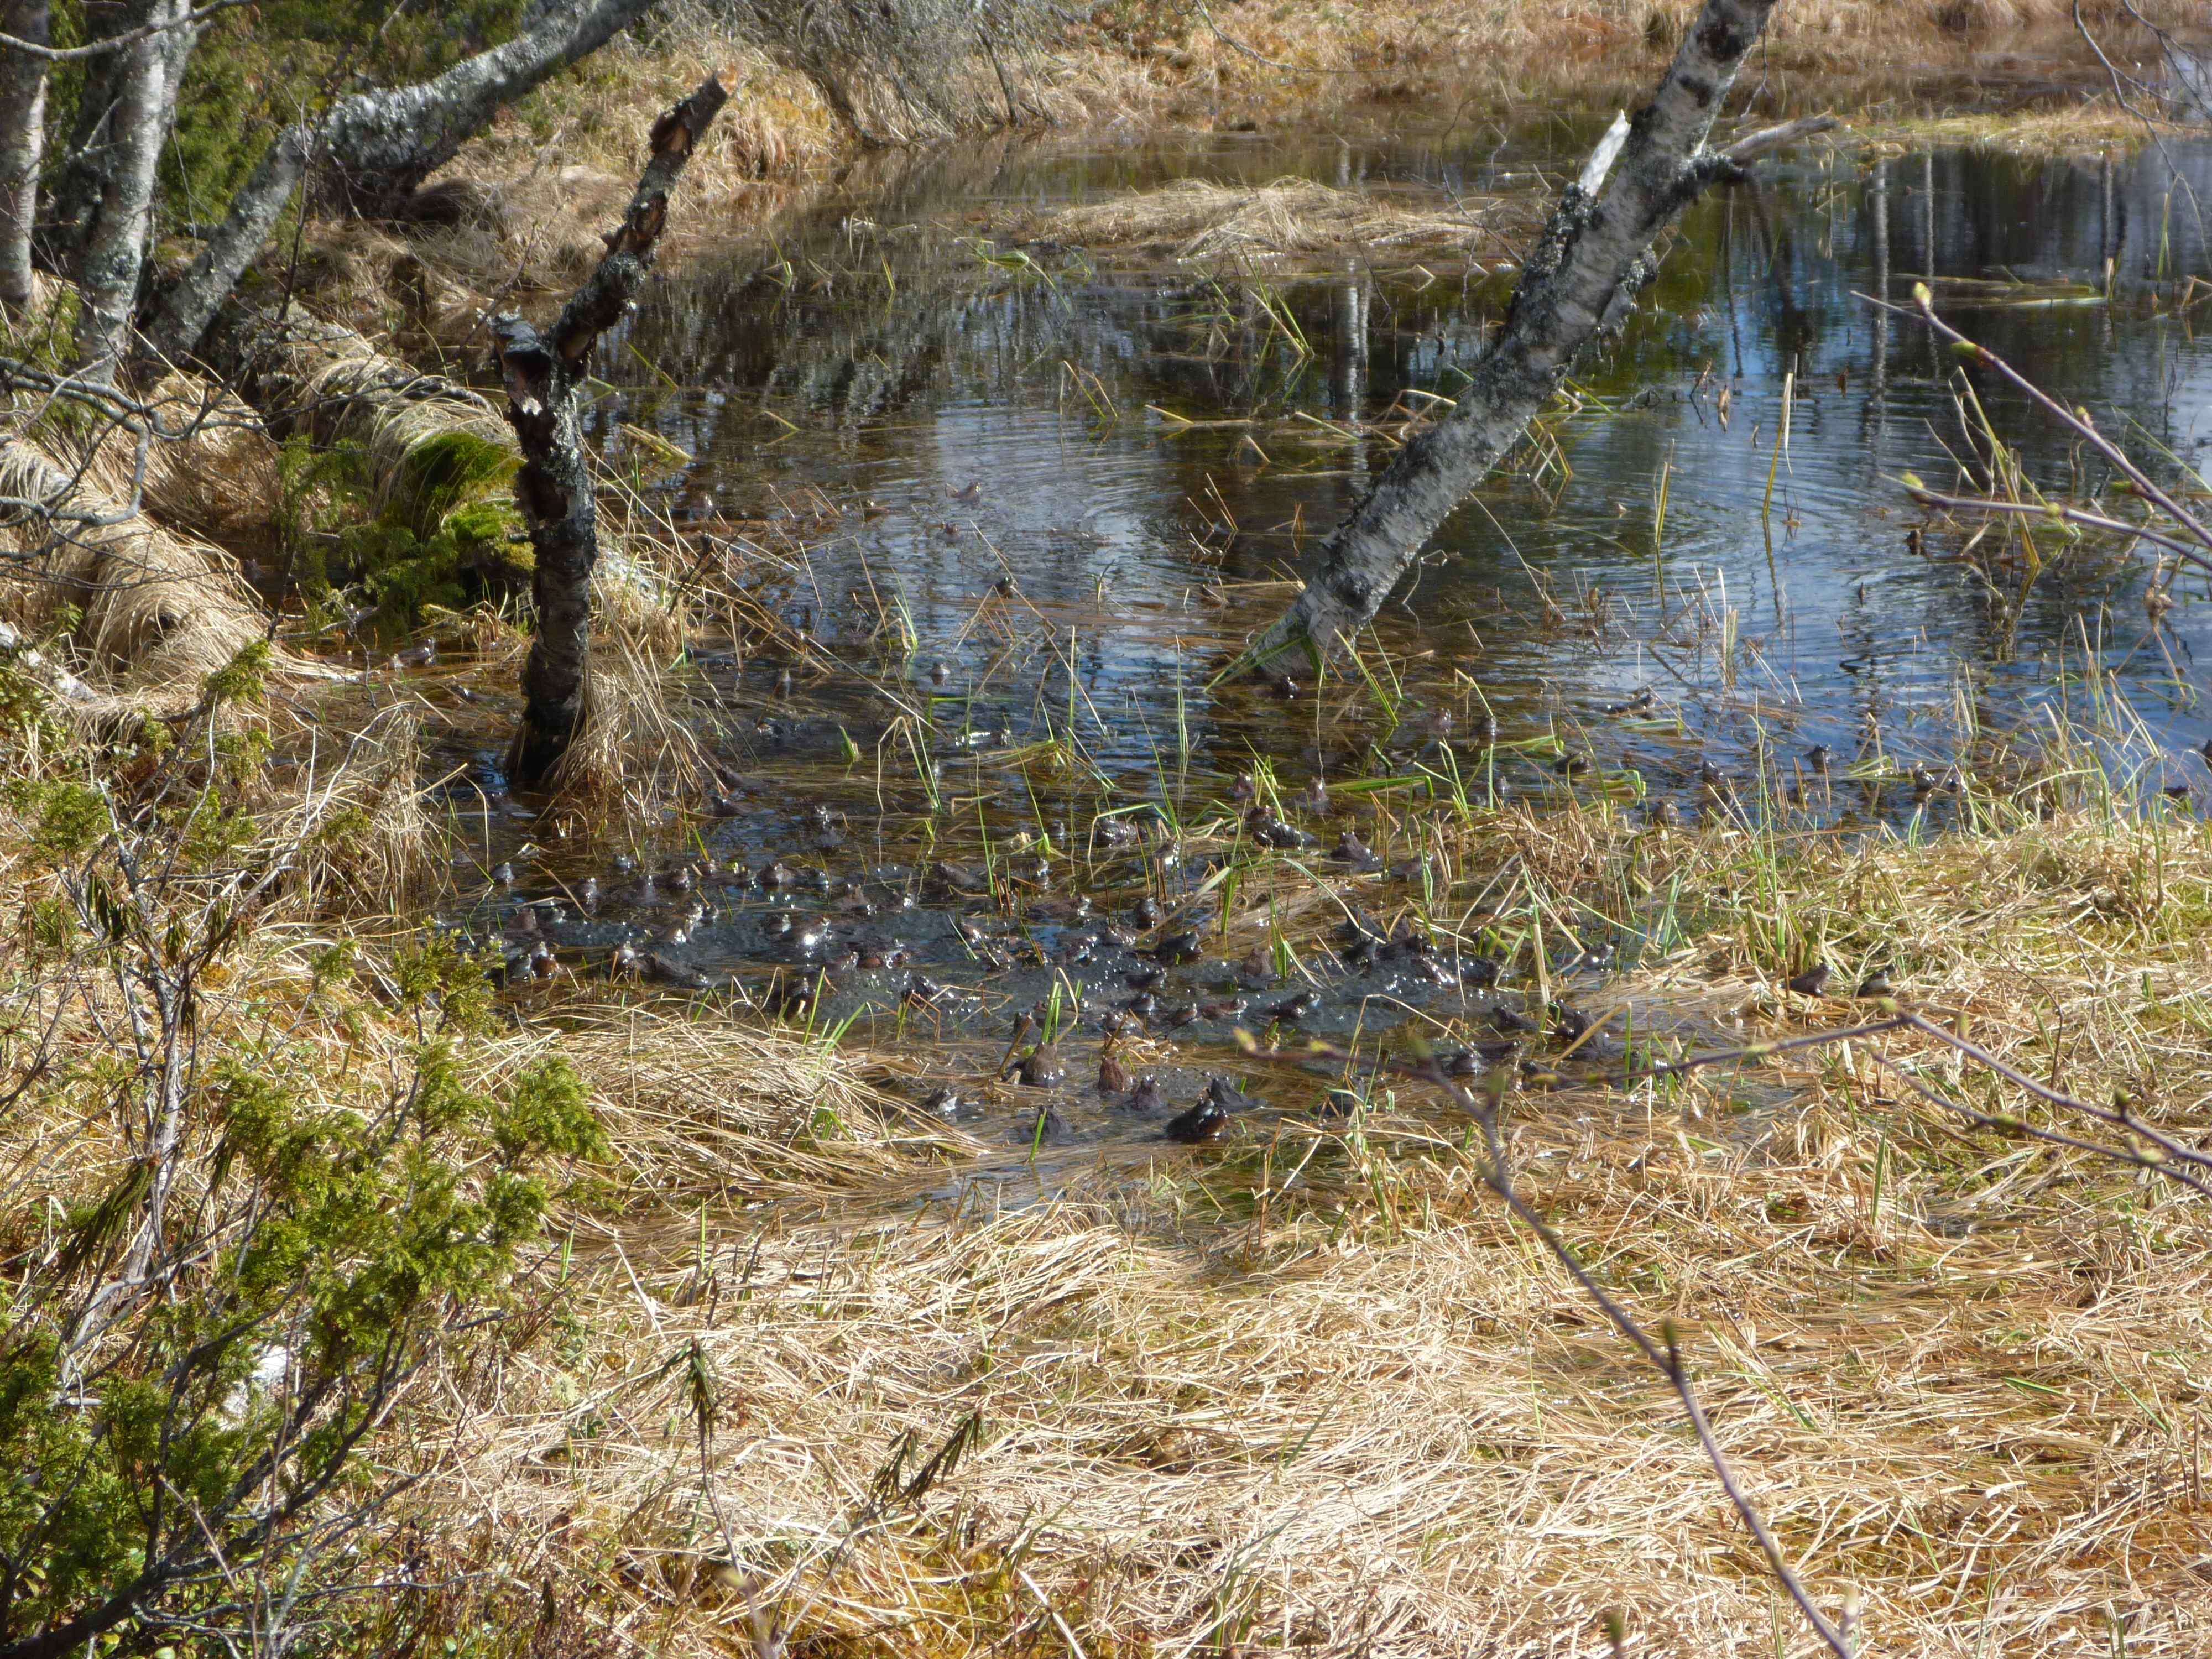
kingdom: Animalia
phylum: Chordata
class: Amphibia
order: Anura
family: Ranidae
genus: Rana
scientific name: Rana temporaria
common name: Common frog
